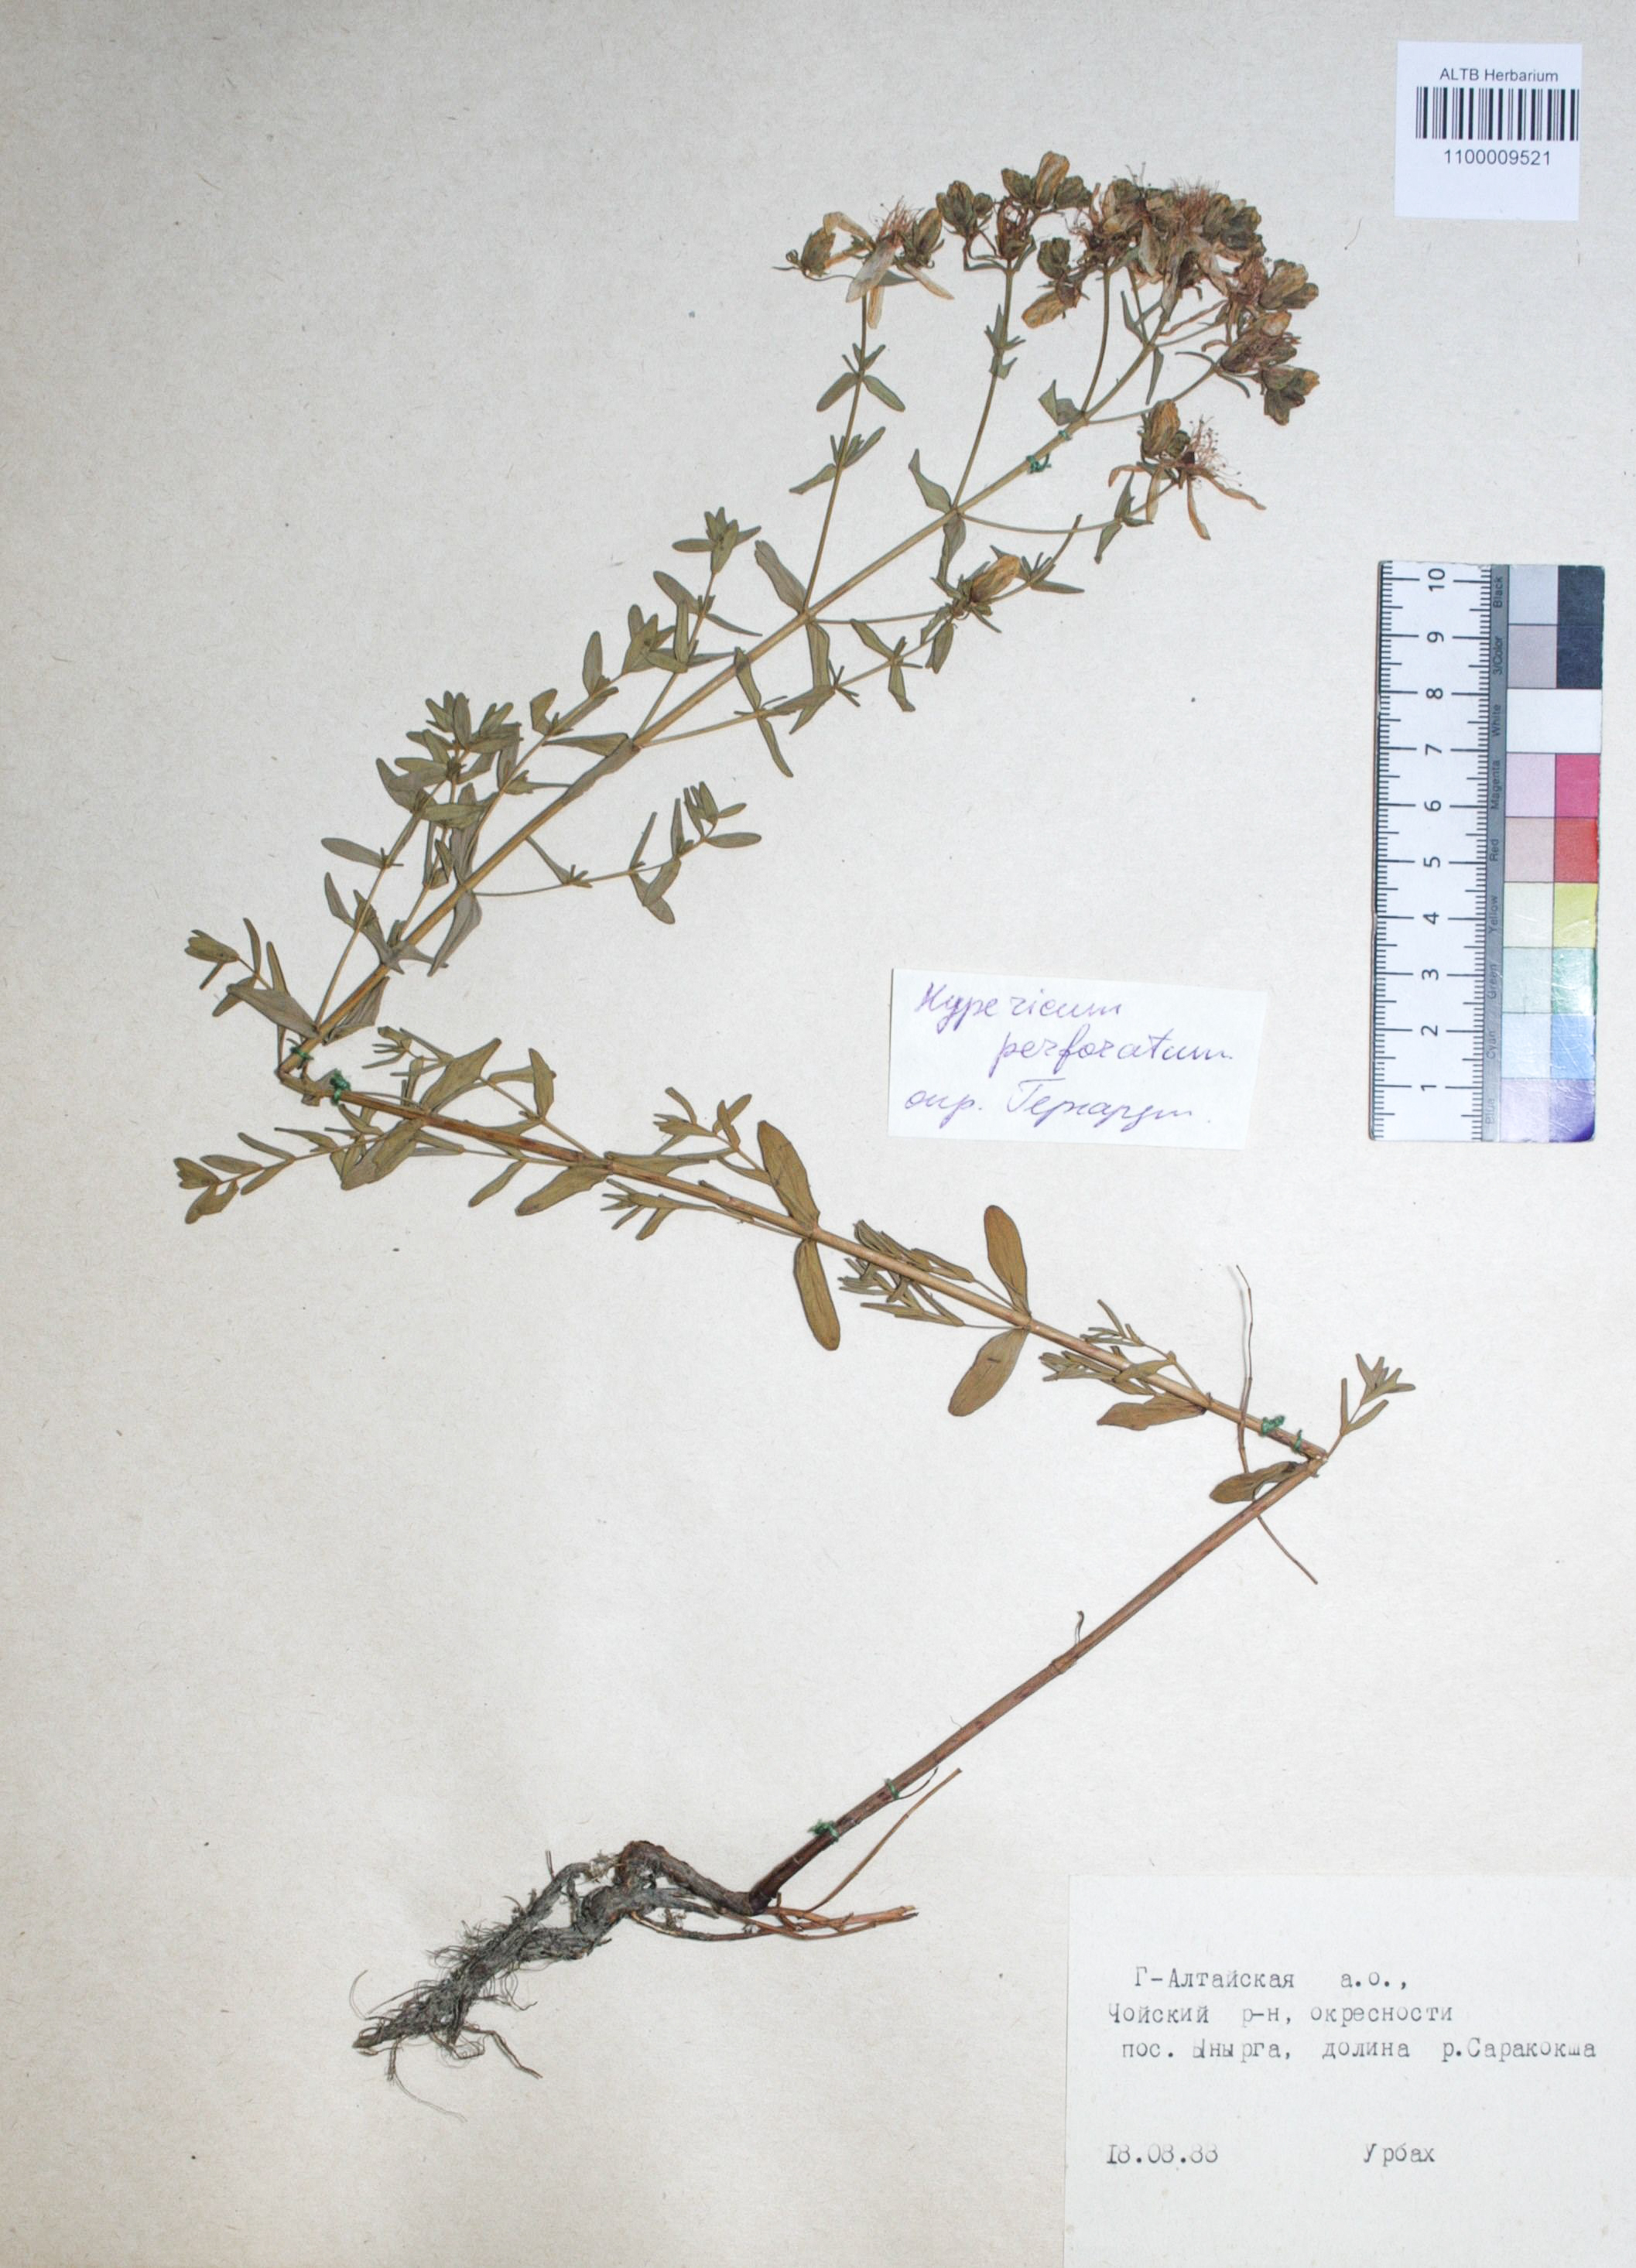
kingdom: Plantae
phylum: Tracheophyta
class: Magnoliopsida
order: Malpighiales
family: Hypericaceae
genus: Hypericum
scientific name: Hypericum perforatum
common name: Common st. johnswort
